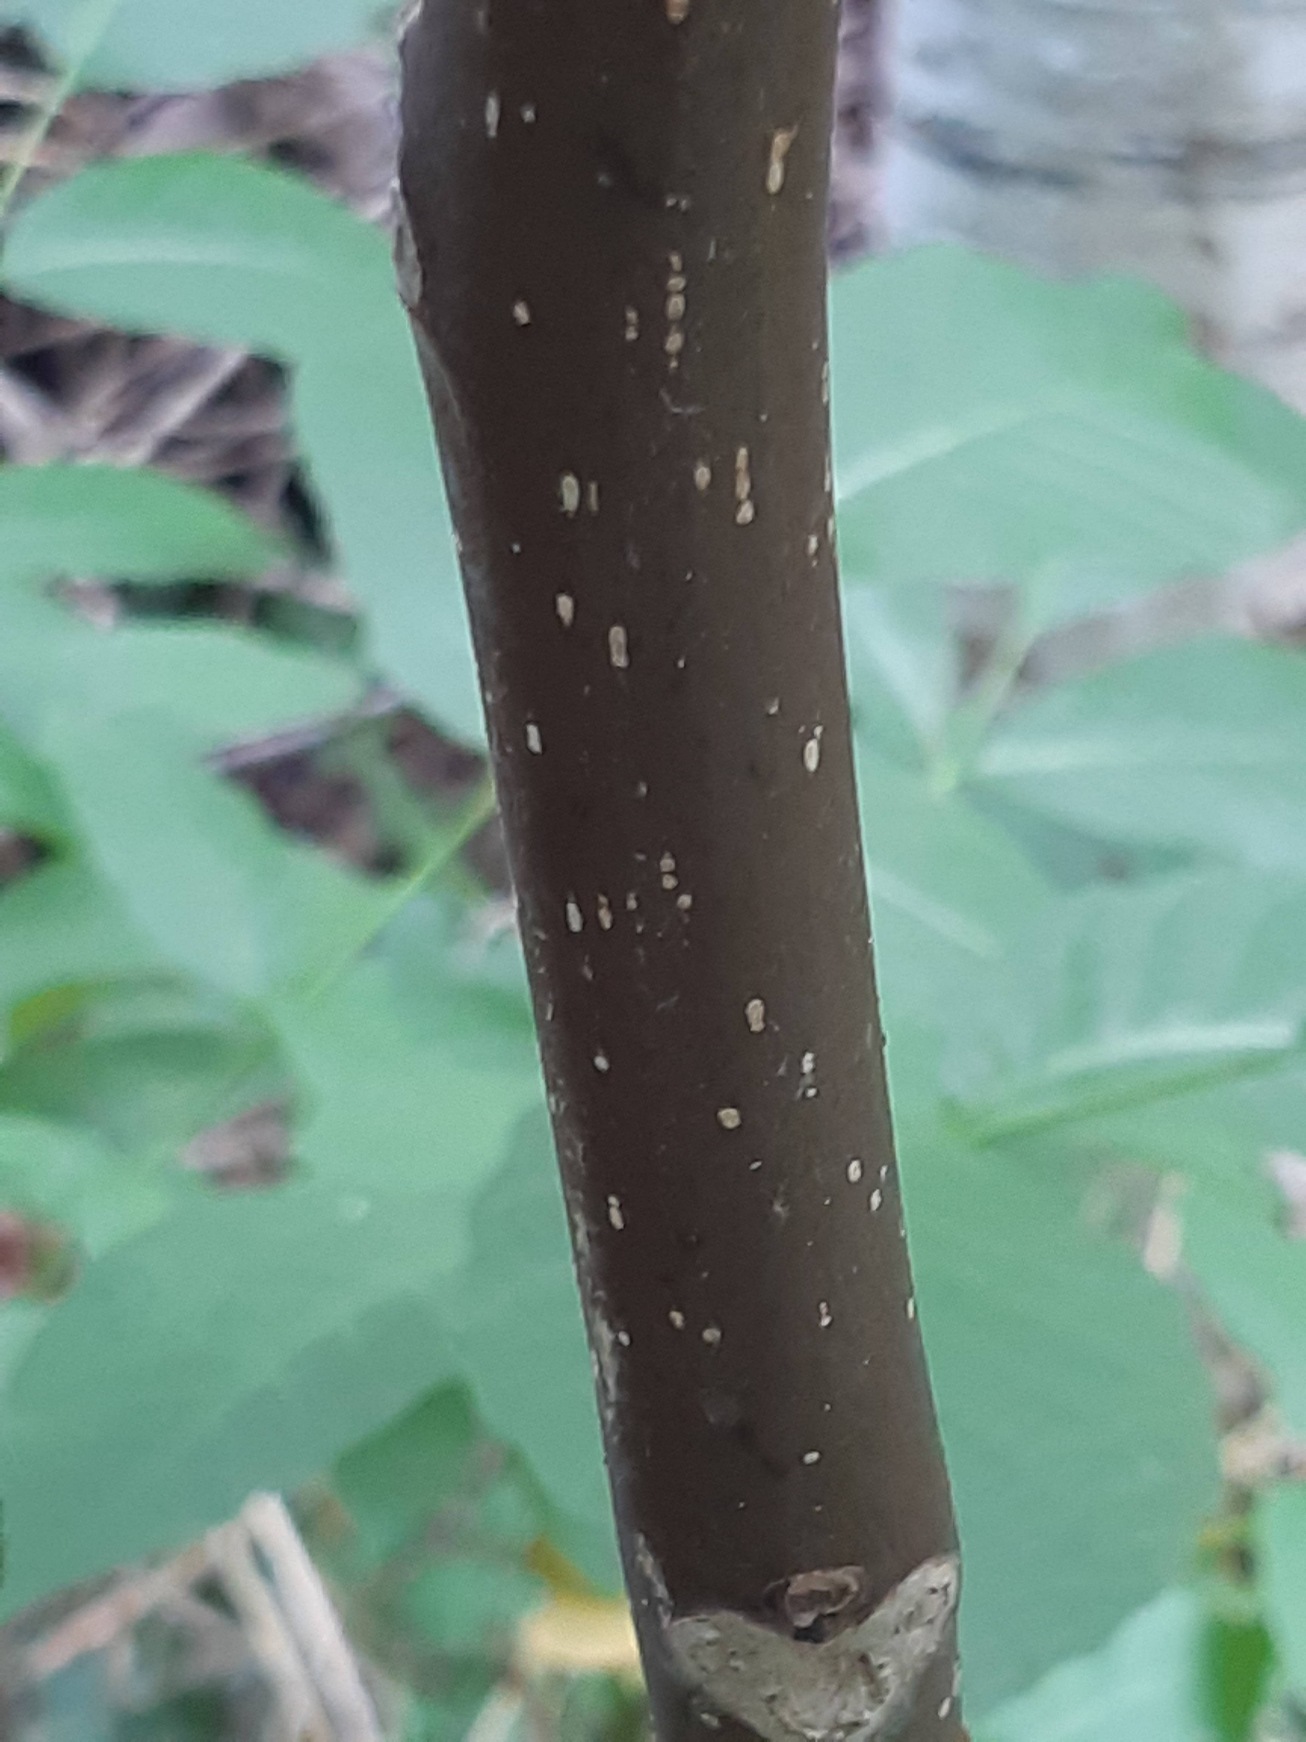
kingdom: Plantae
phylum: Tracheophyta
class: Magnoliopsida
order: Fagales
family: Juglandaceae
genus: Juglans
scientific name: Juglans regia
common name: Almindelig valnød
